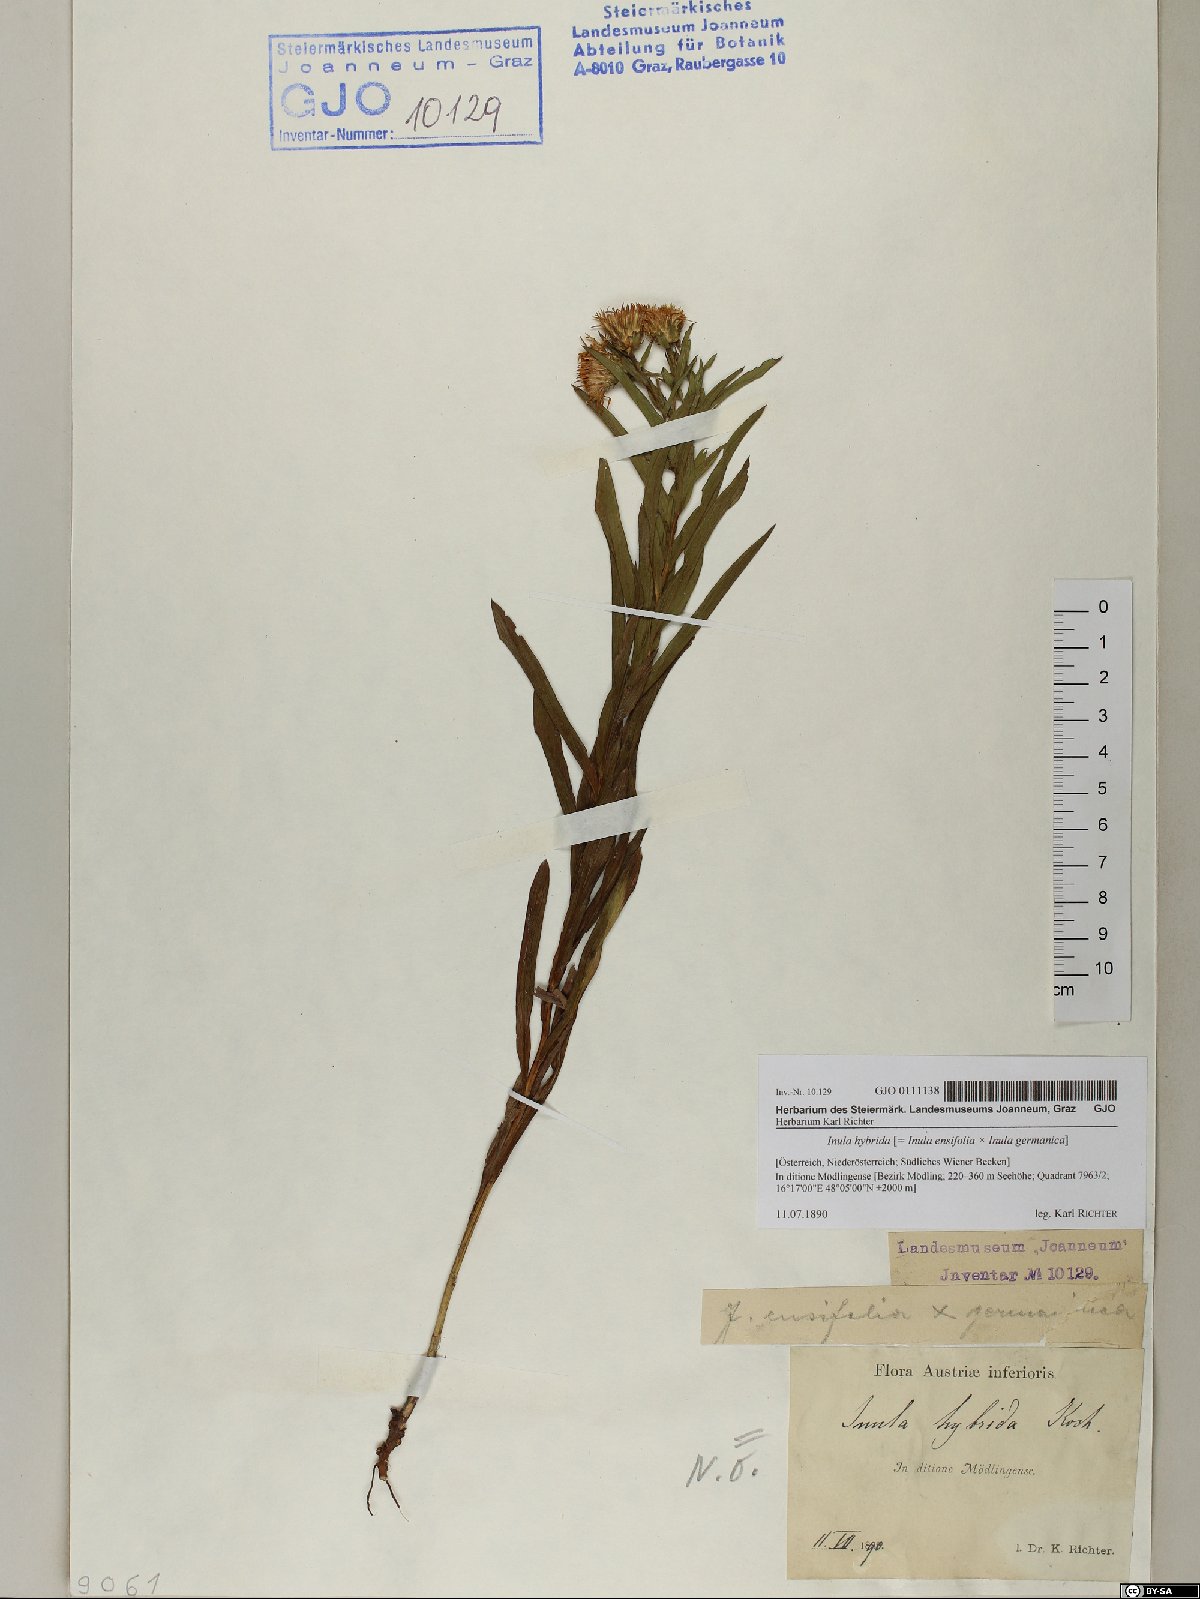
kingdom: Plantae
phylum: Tracheophyta
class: Magnoliopsida
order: Asterales
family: Asteraceae
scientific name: Asteraceae
